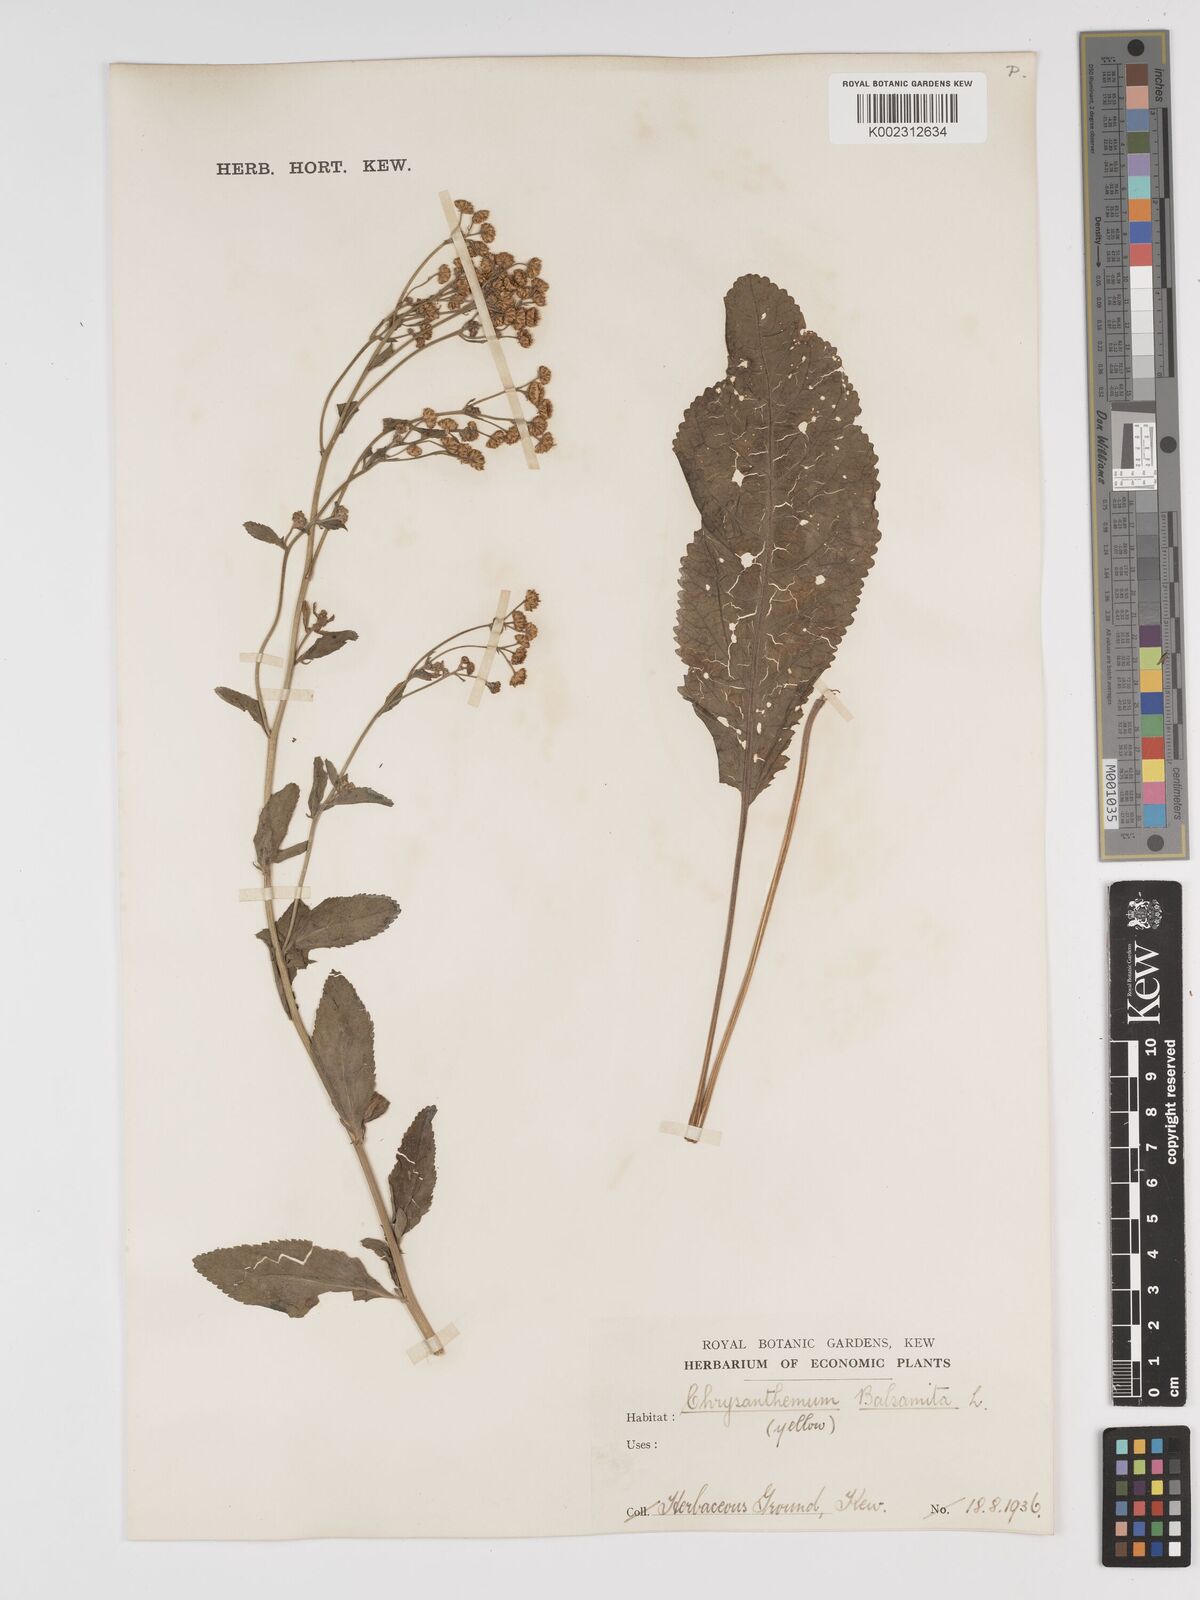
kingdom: Plantae
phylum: Tracheophyta
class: Magnoliopsida
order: Asterales
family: Asteraceae
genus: Tanacetum
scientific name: Tanacetum balsamita
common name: Costmary
